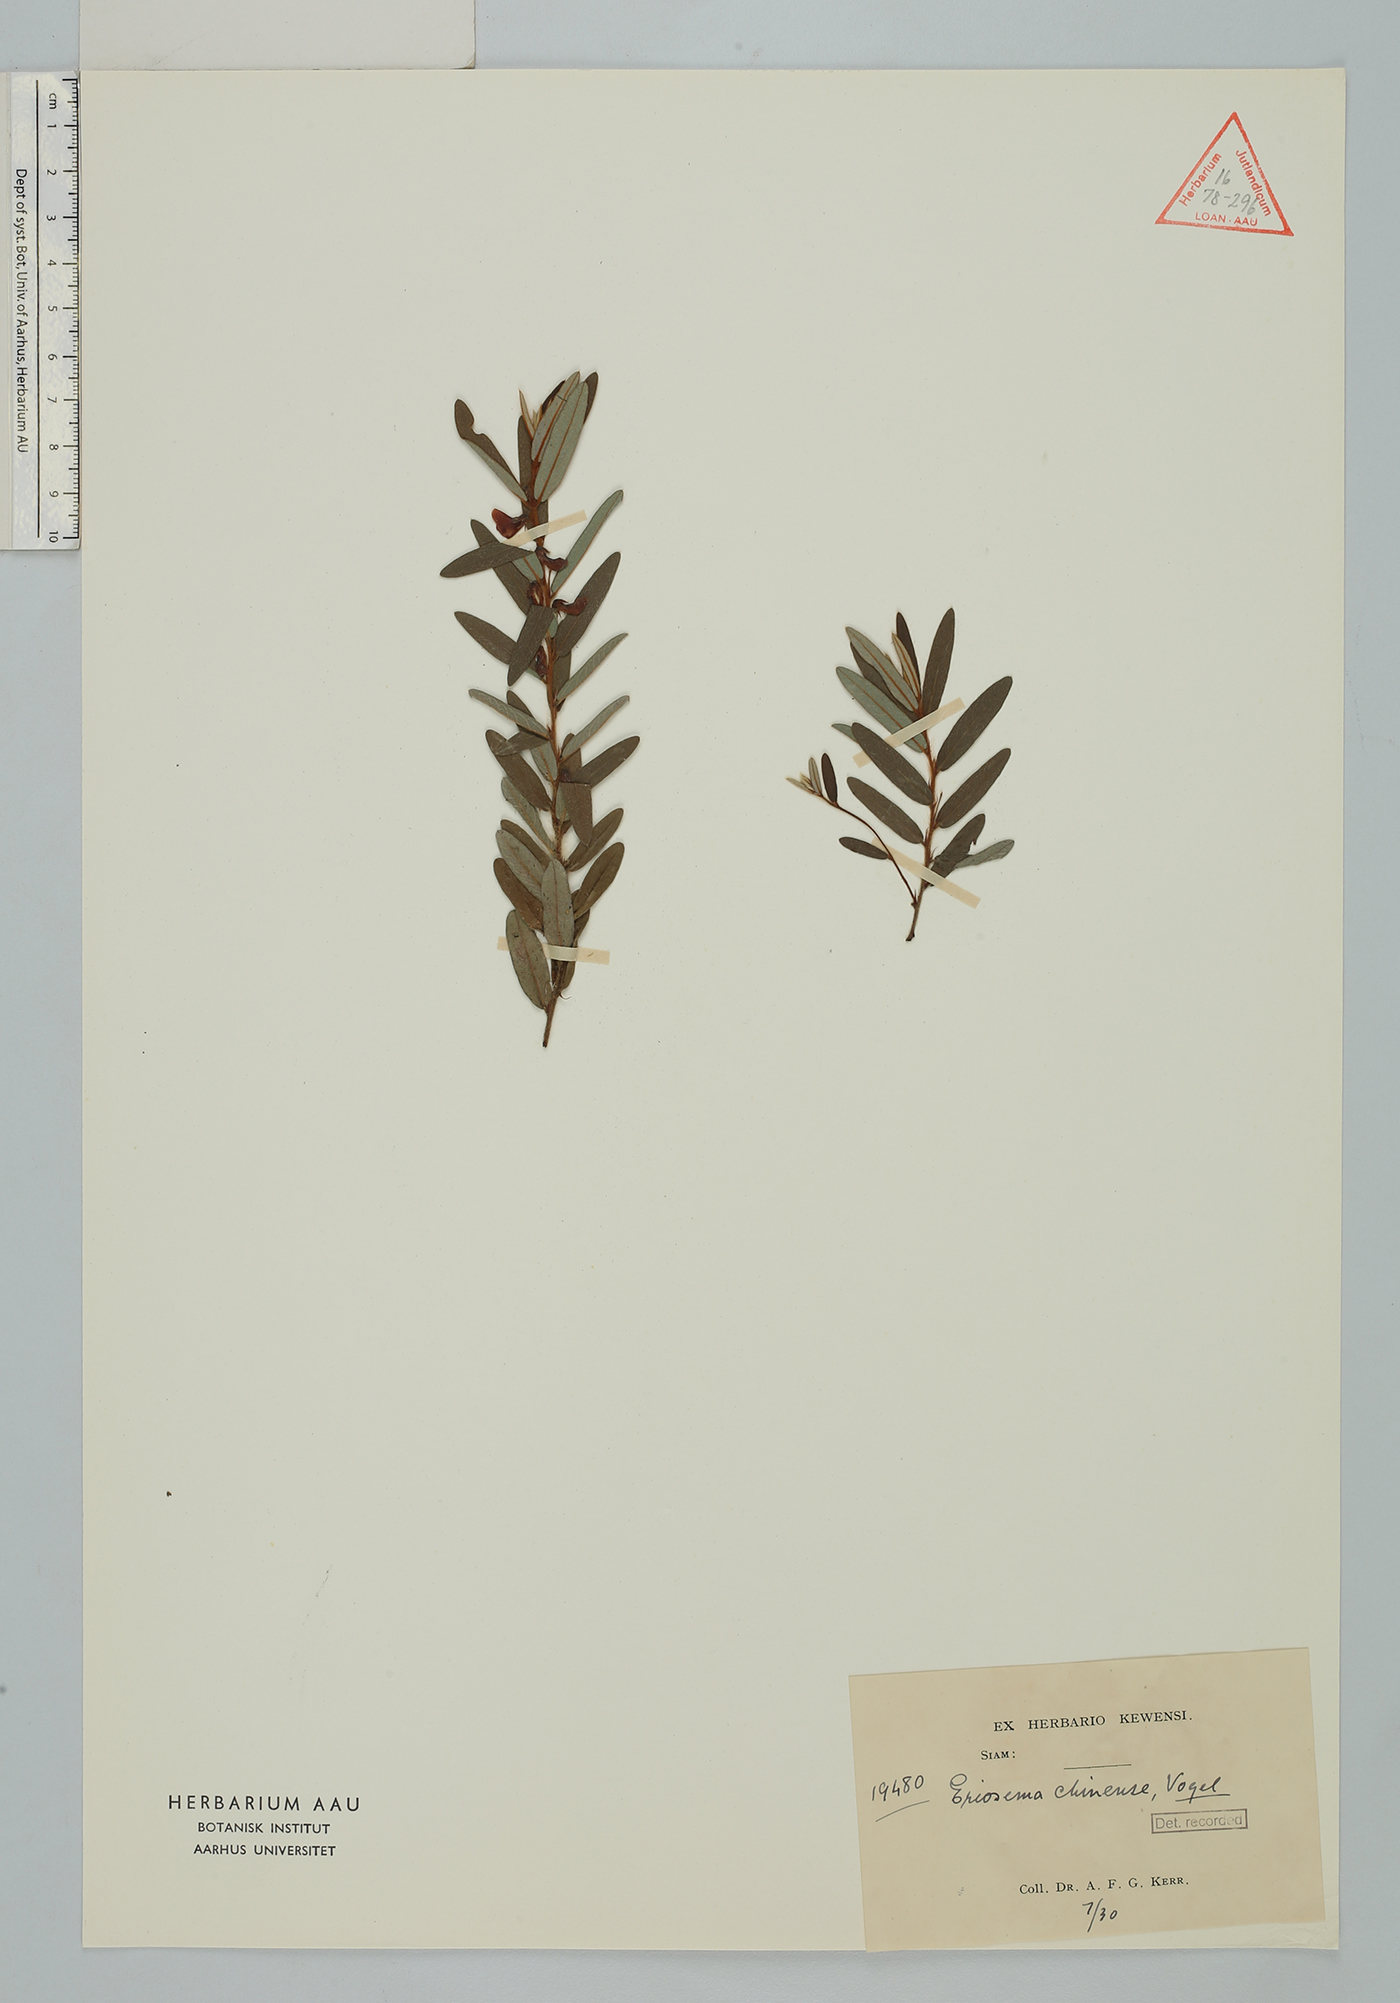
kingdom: Plantae
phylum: Tracheophyta
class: Magnoliopsida
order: Fabales
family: Fabaceae
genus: Eriosema
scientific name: Eriosema chinense
